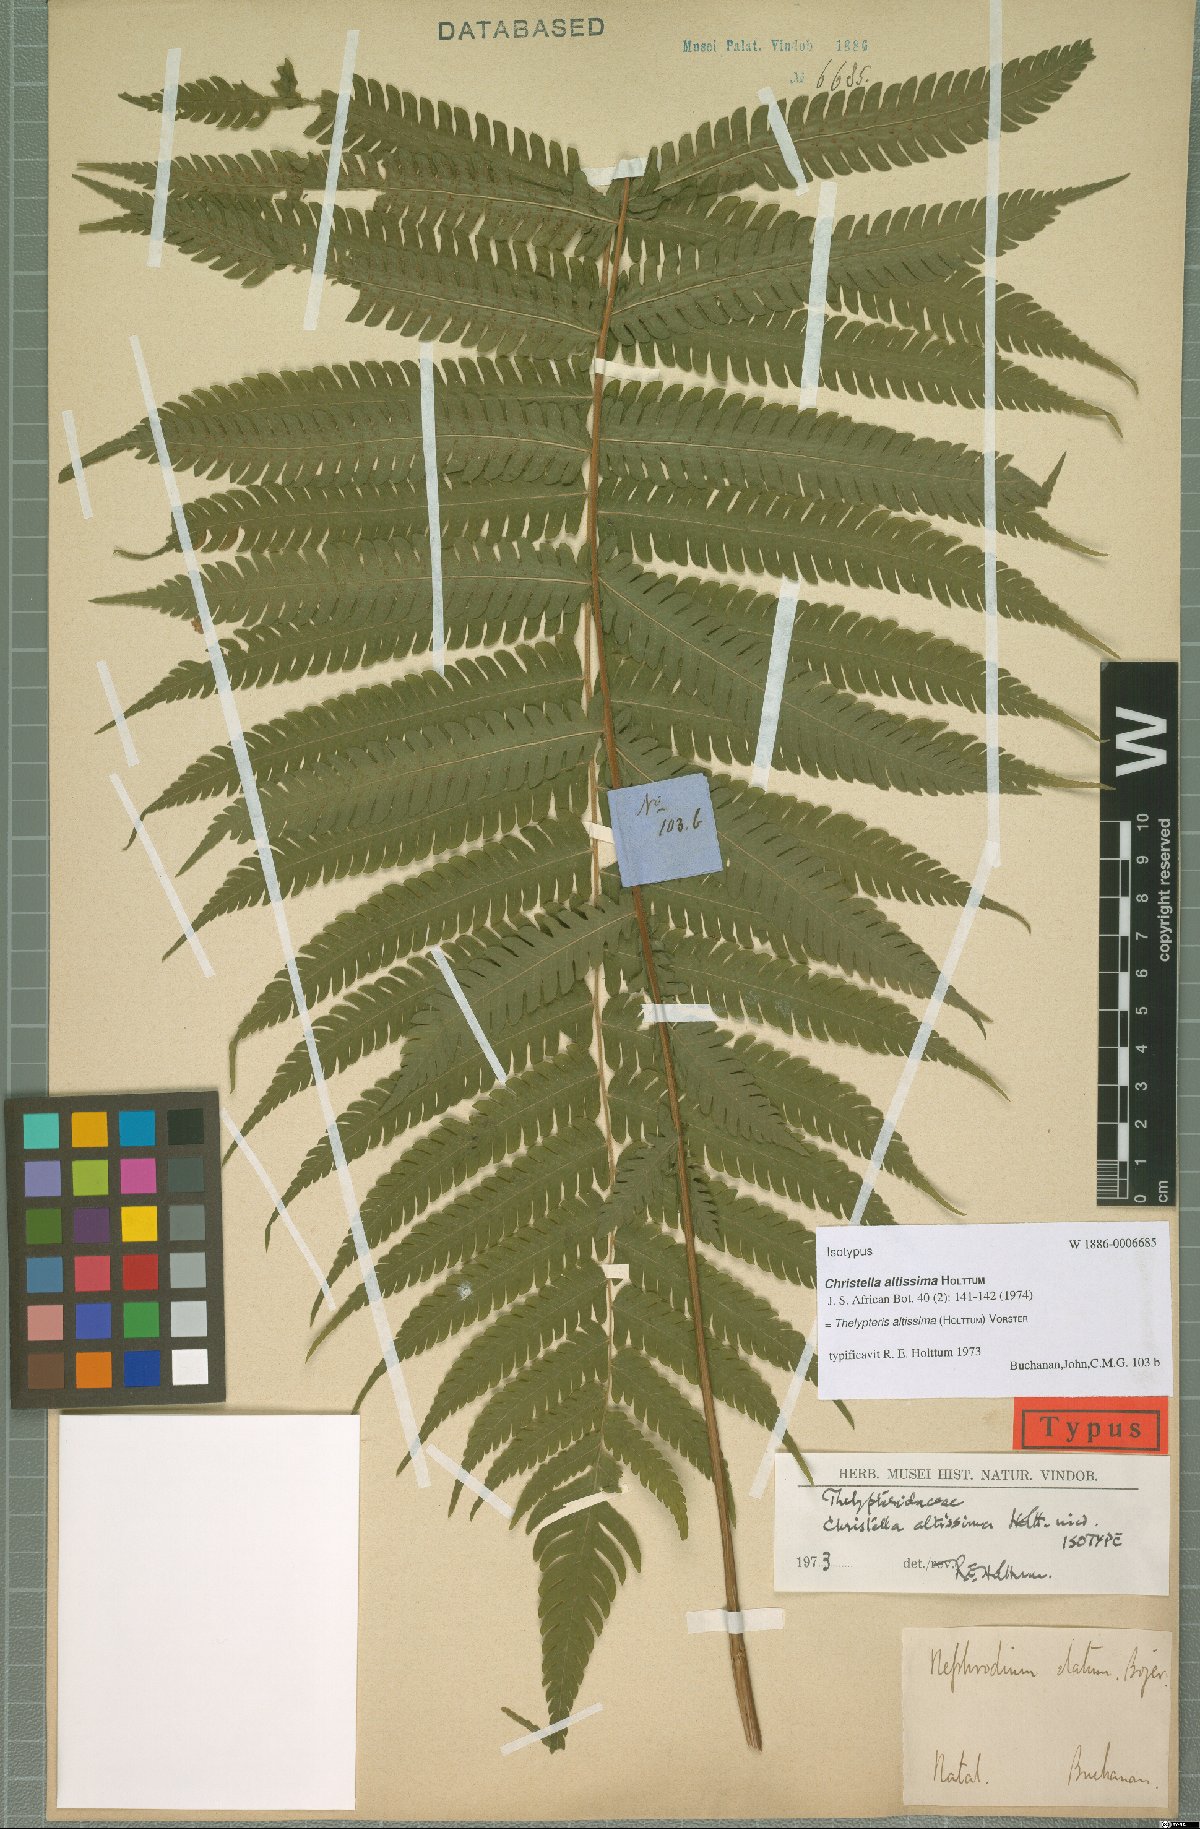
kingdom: Plantae
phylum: Tracheophyta
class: Polypodiopsida
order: Polypodiales
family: Thelypteridaceae
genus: Christella
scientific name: Christella altissima
